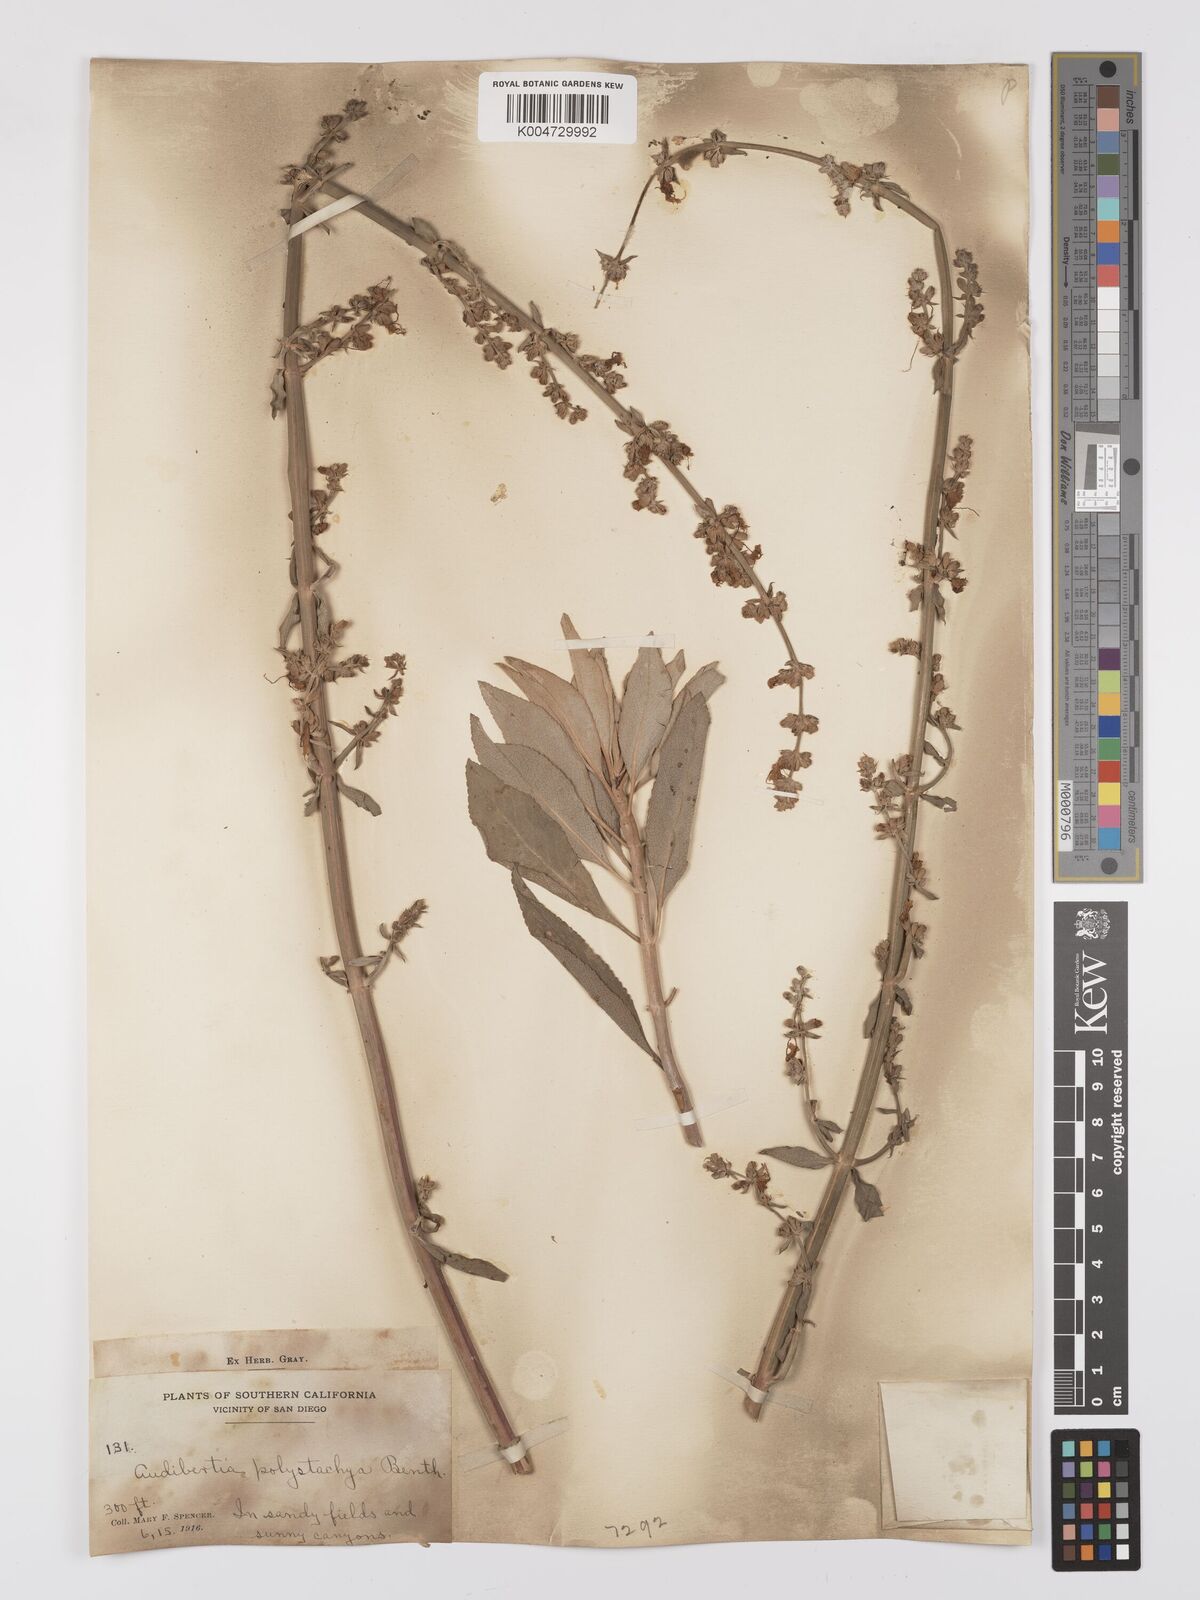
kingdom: Plantae
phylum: Tracheophyta
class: Magnoliopsida
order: Lamiales
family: Lamiaceae
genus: Salvia
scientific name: Salvia apiana
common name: White sage
